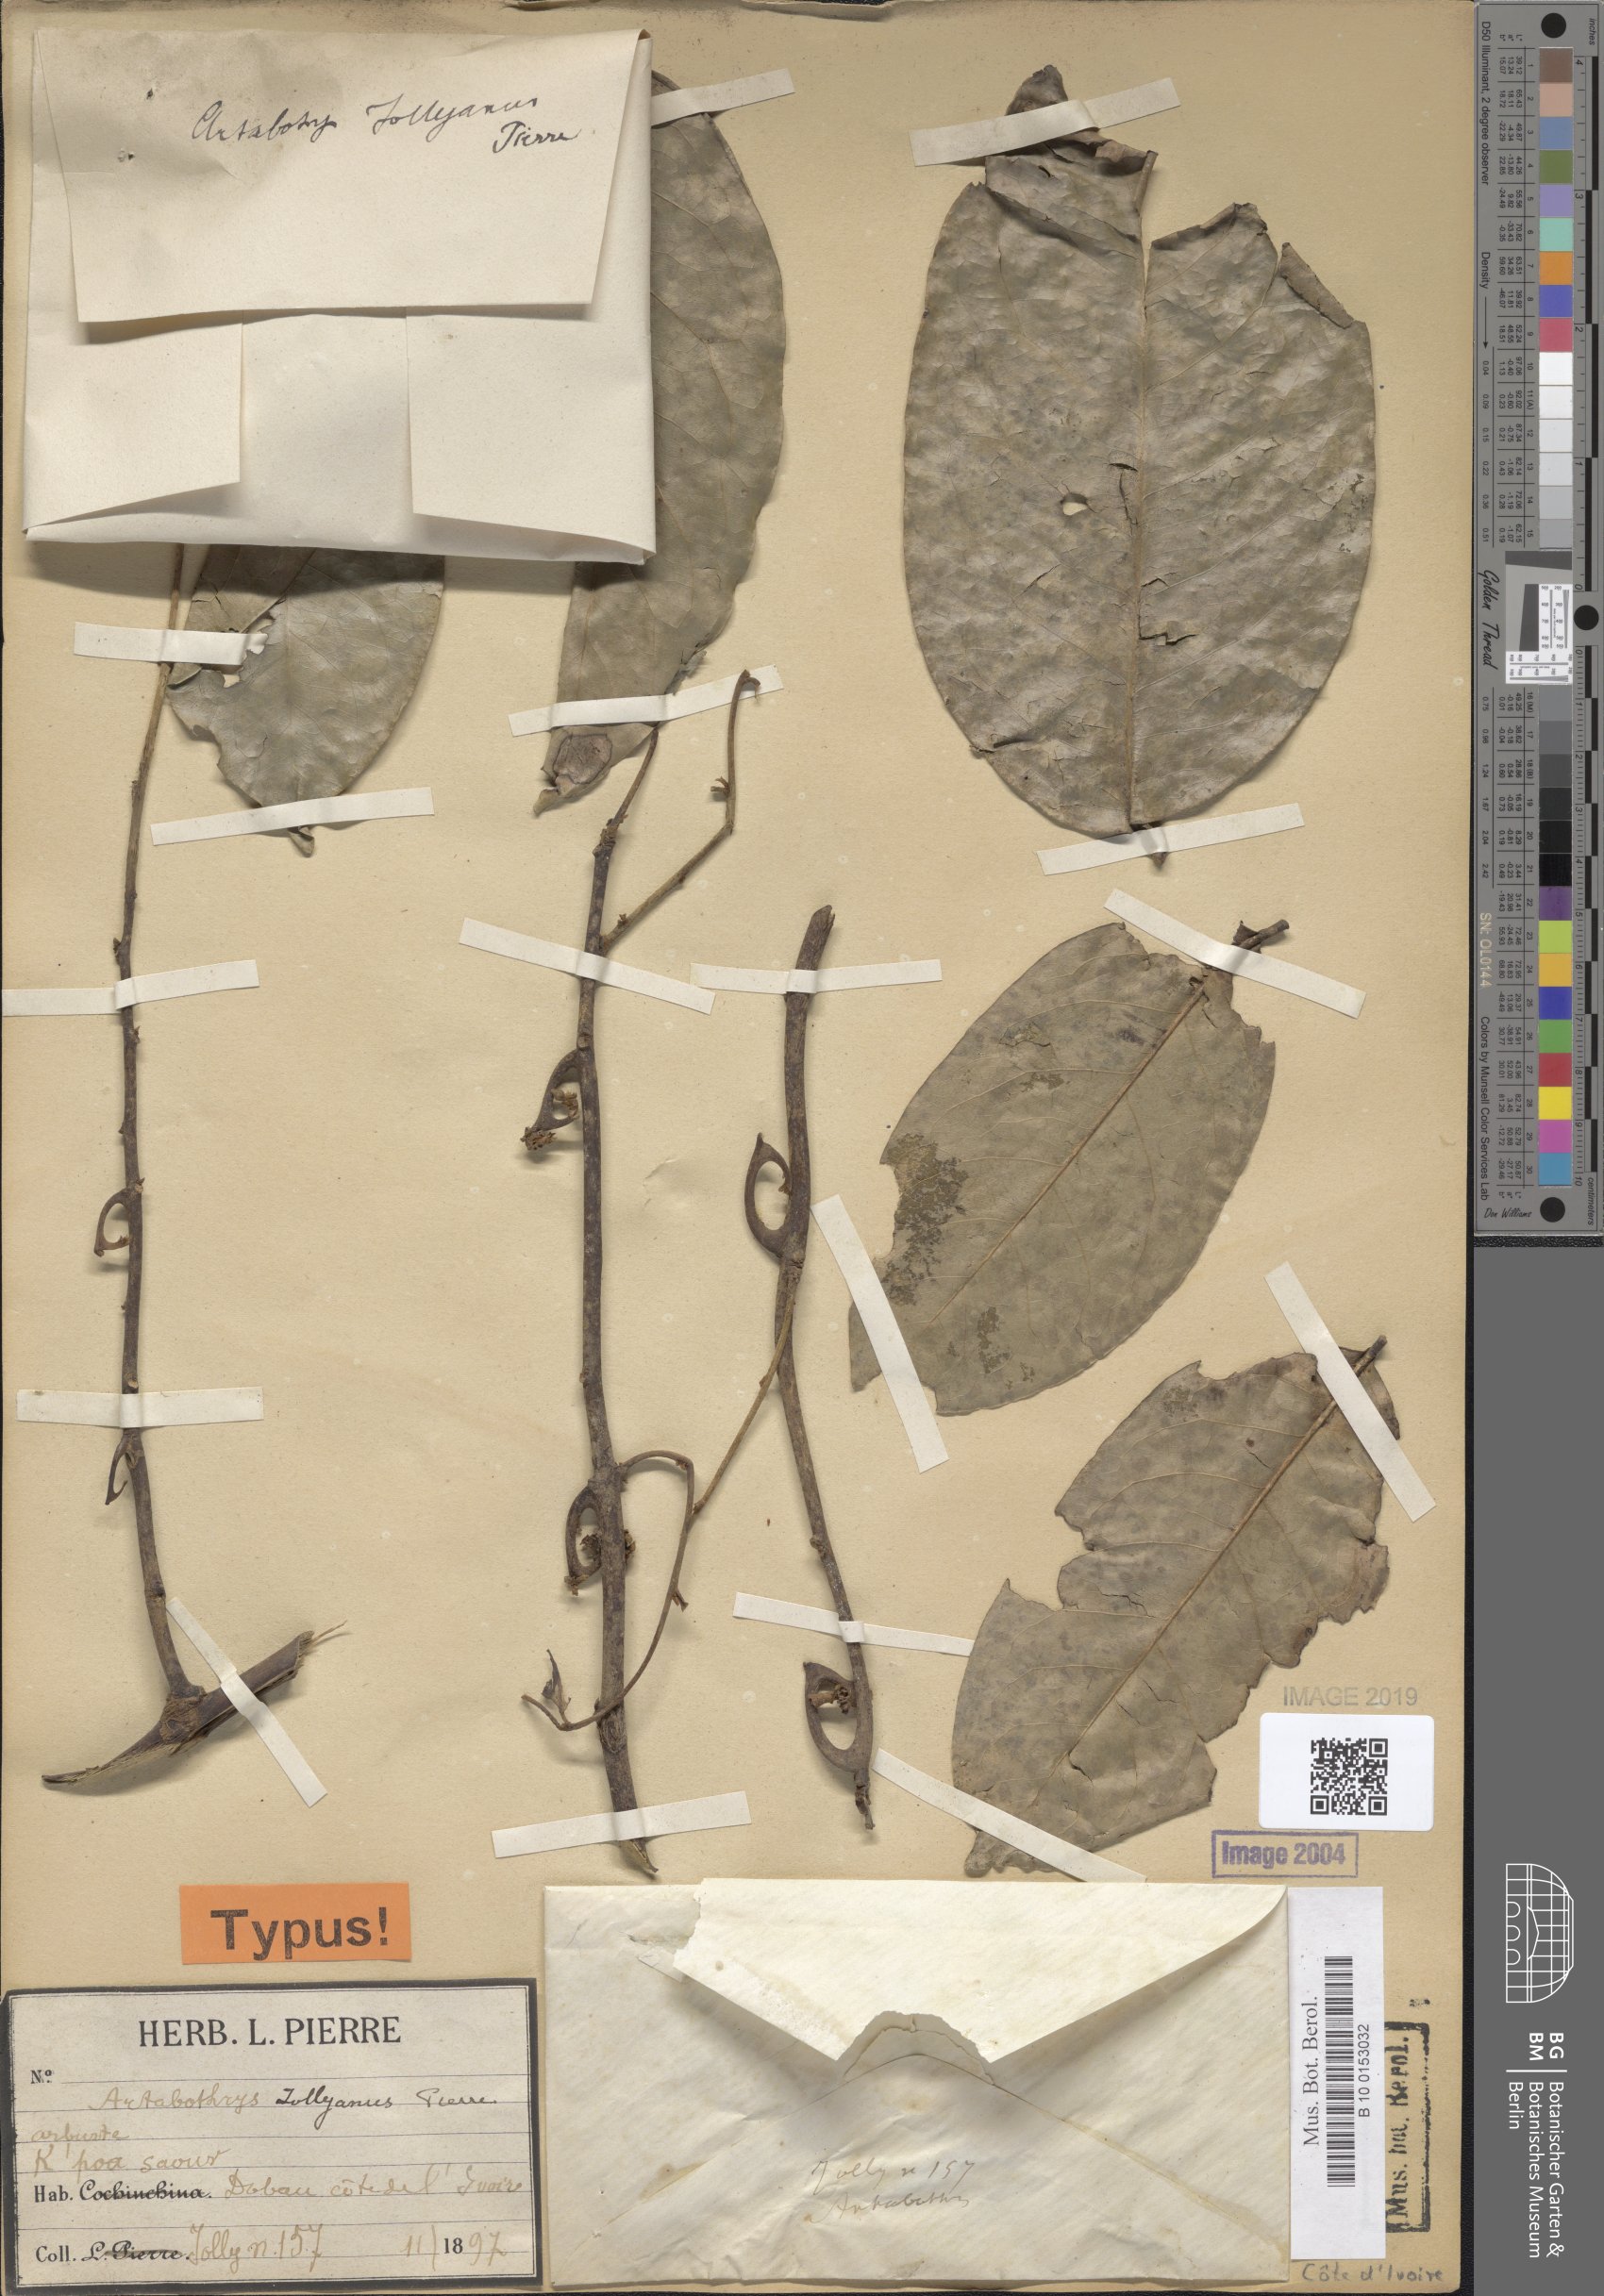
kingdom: Plantae
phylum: Tracheophyta
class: Magnoliopsida
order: Magnoliales
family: Annonaceae
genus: Artabotrys
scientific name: Artabotrys jollyanus
